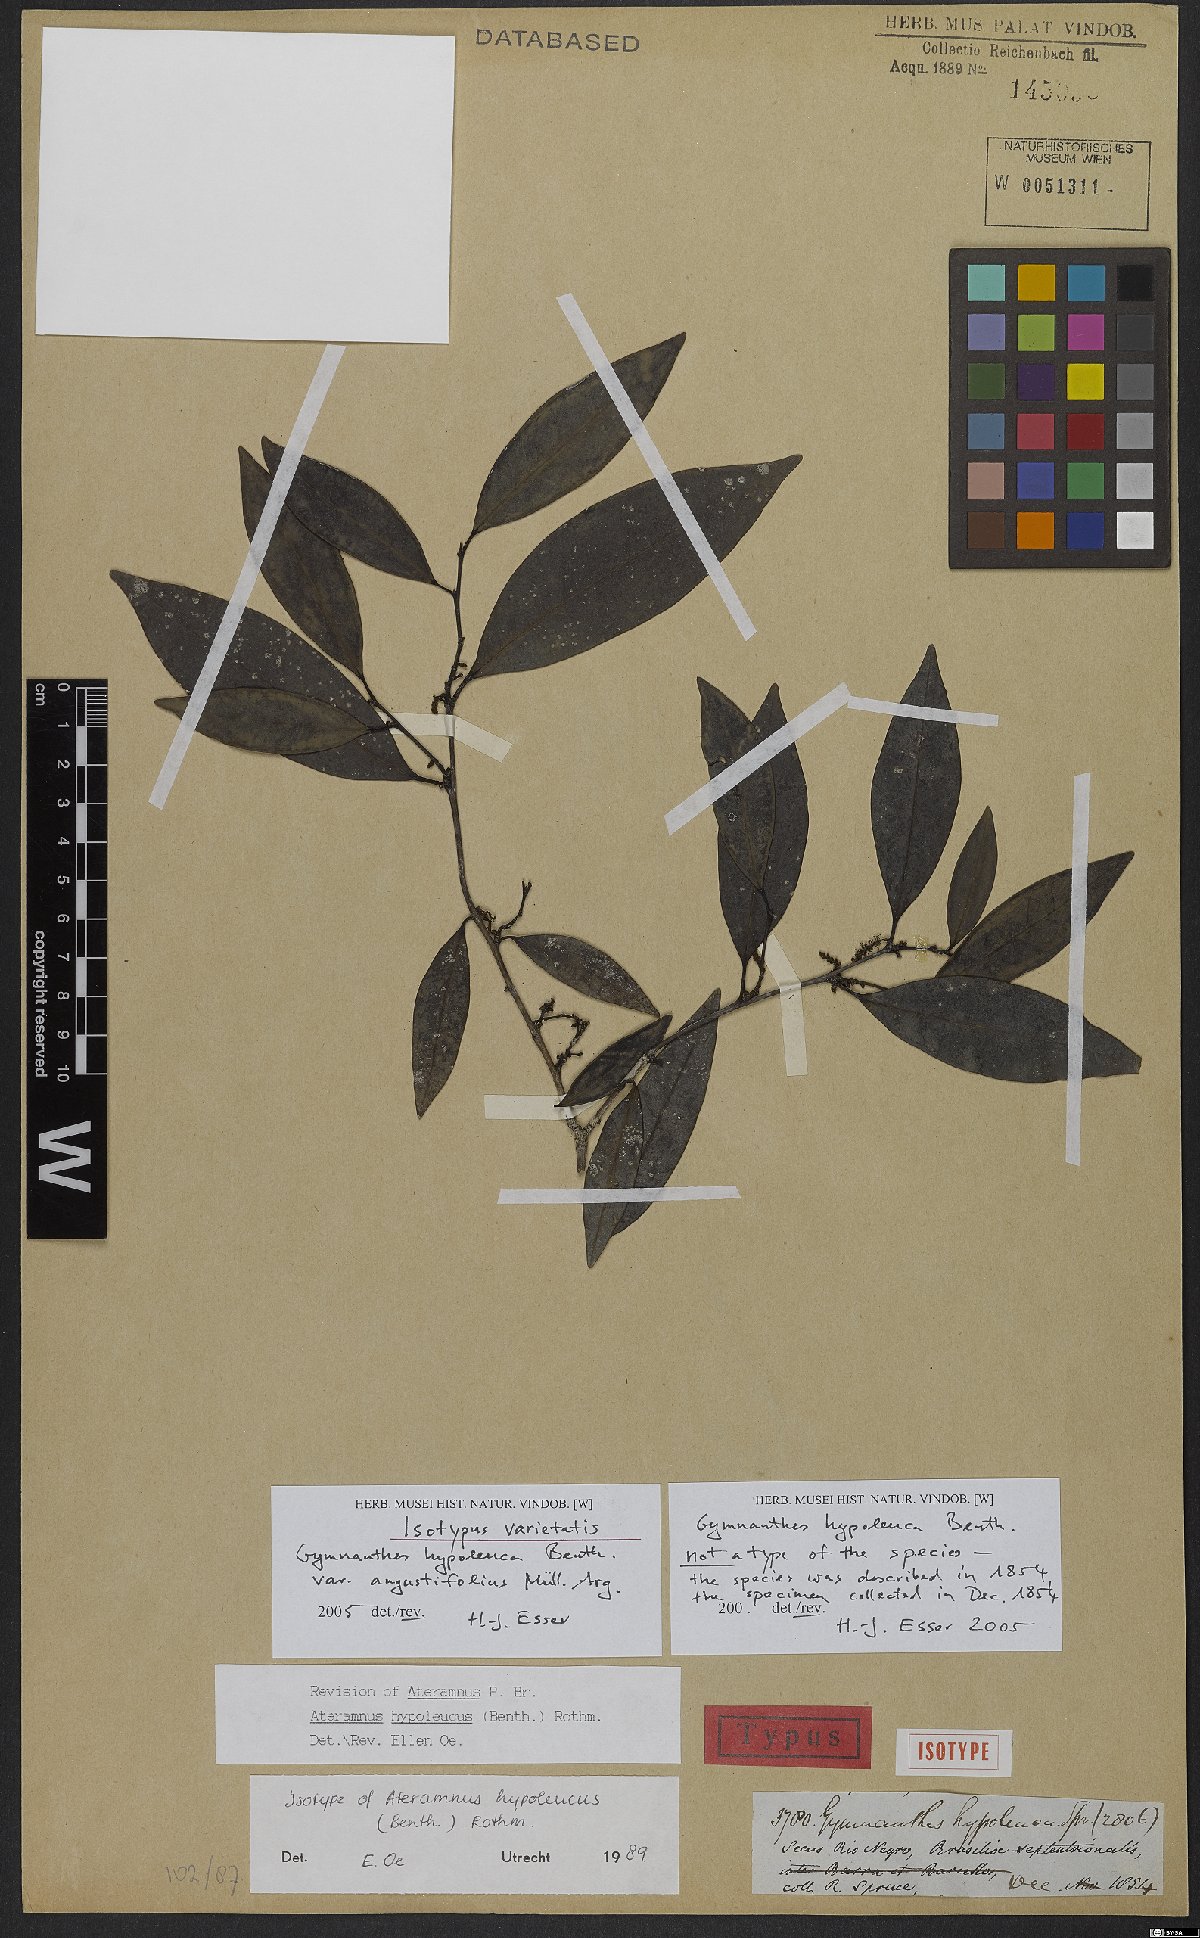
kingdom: Plantae
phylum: Tracheophyta
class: Magnoliopsida
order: Malpighiales
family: Euphorbiaceae
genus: Gymnanthes
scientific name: Gymnanthes hypoleuca
